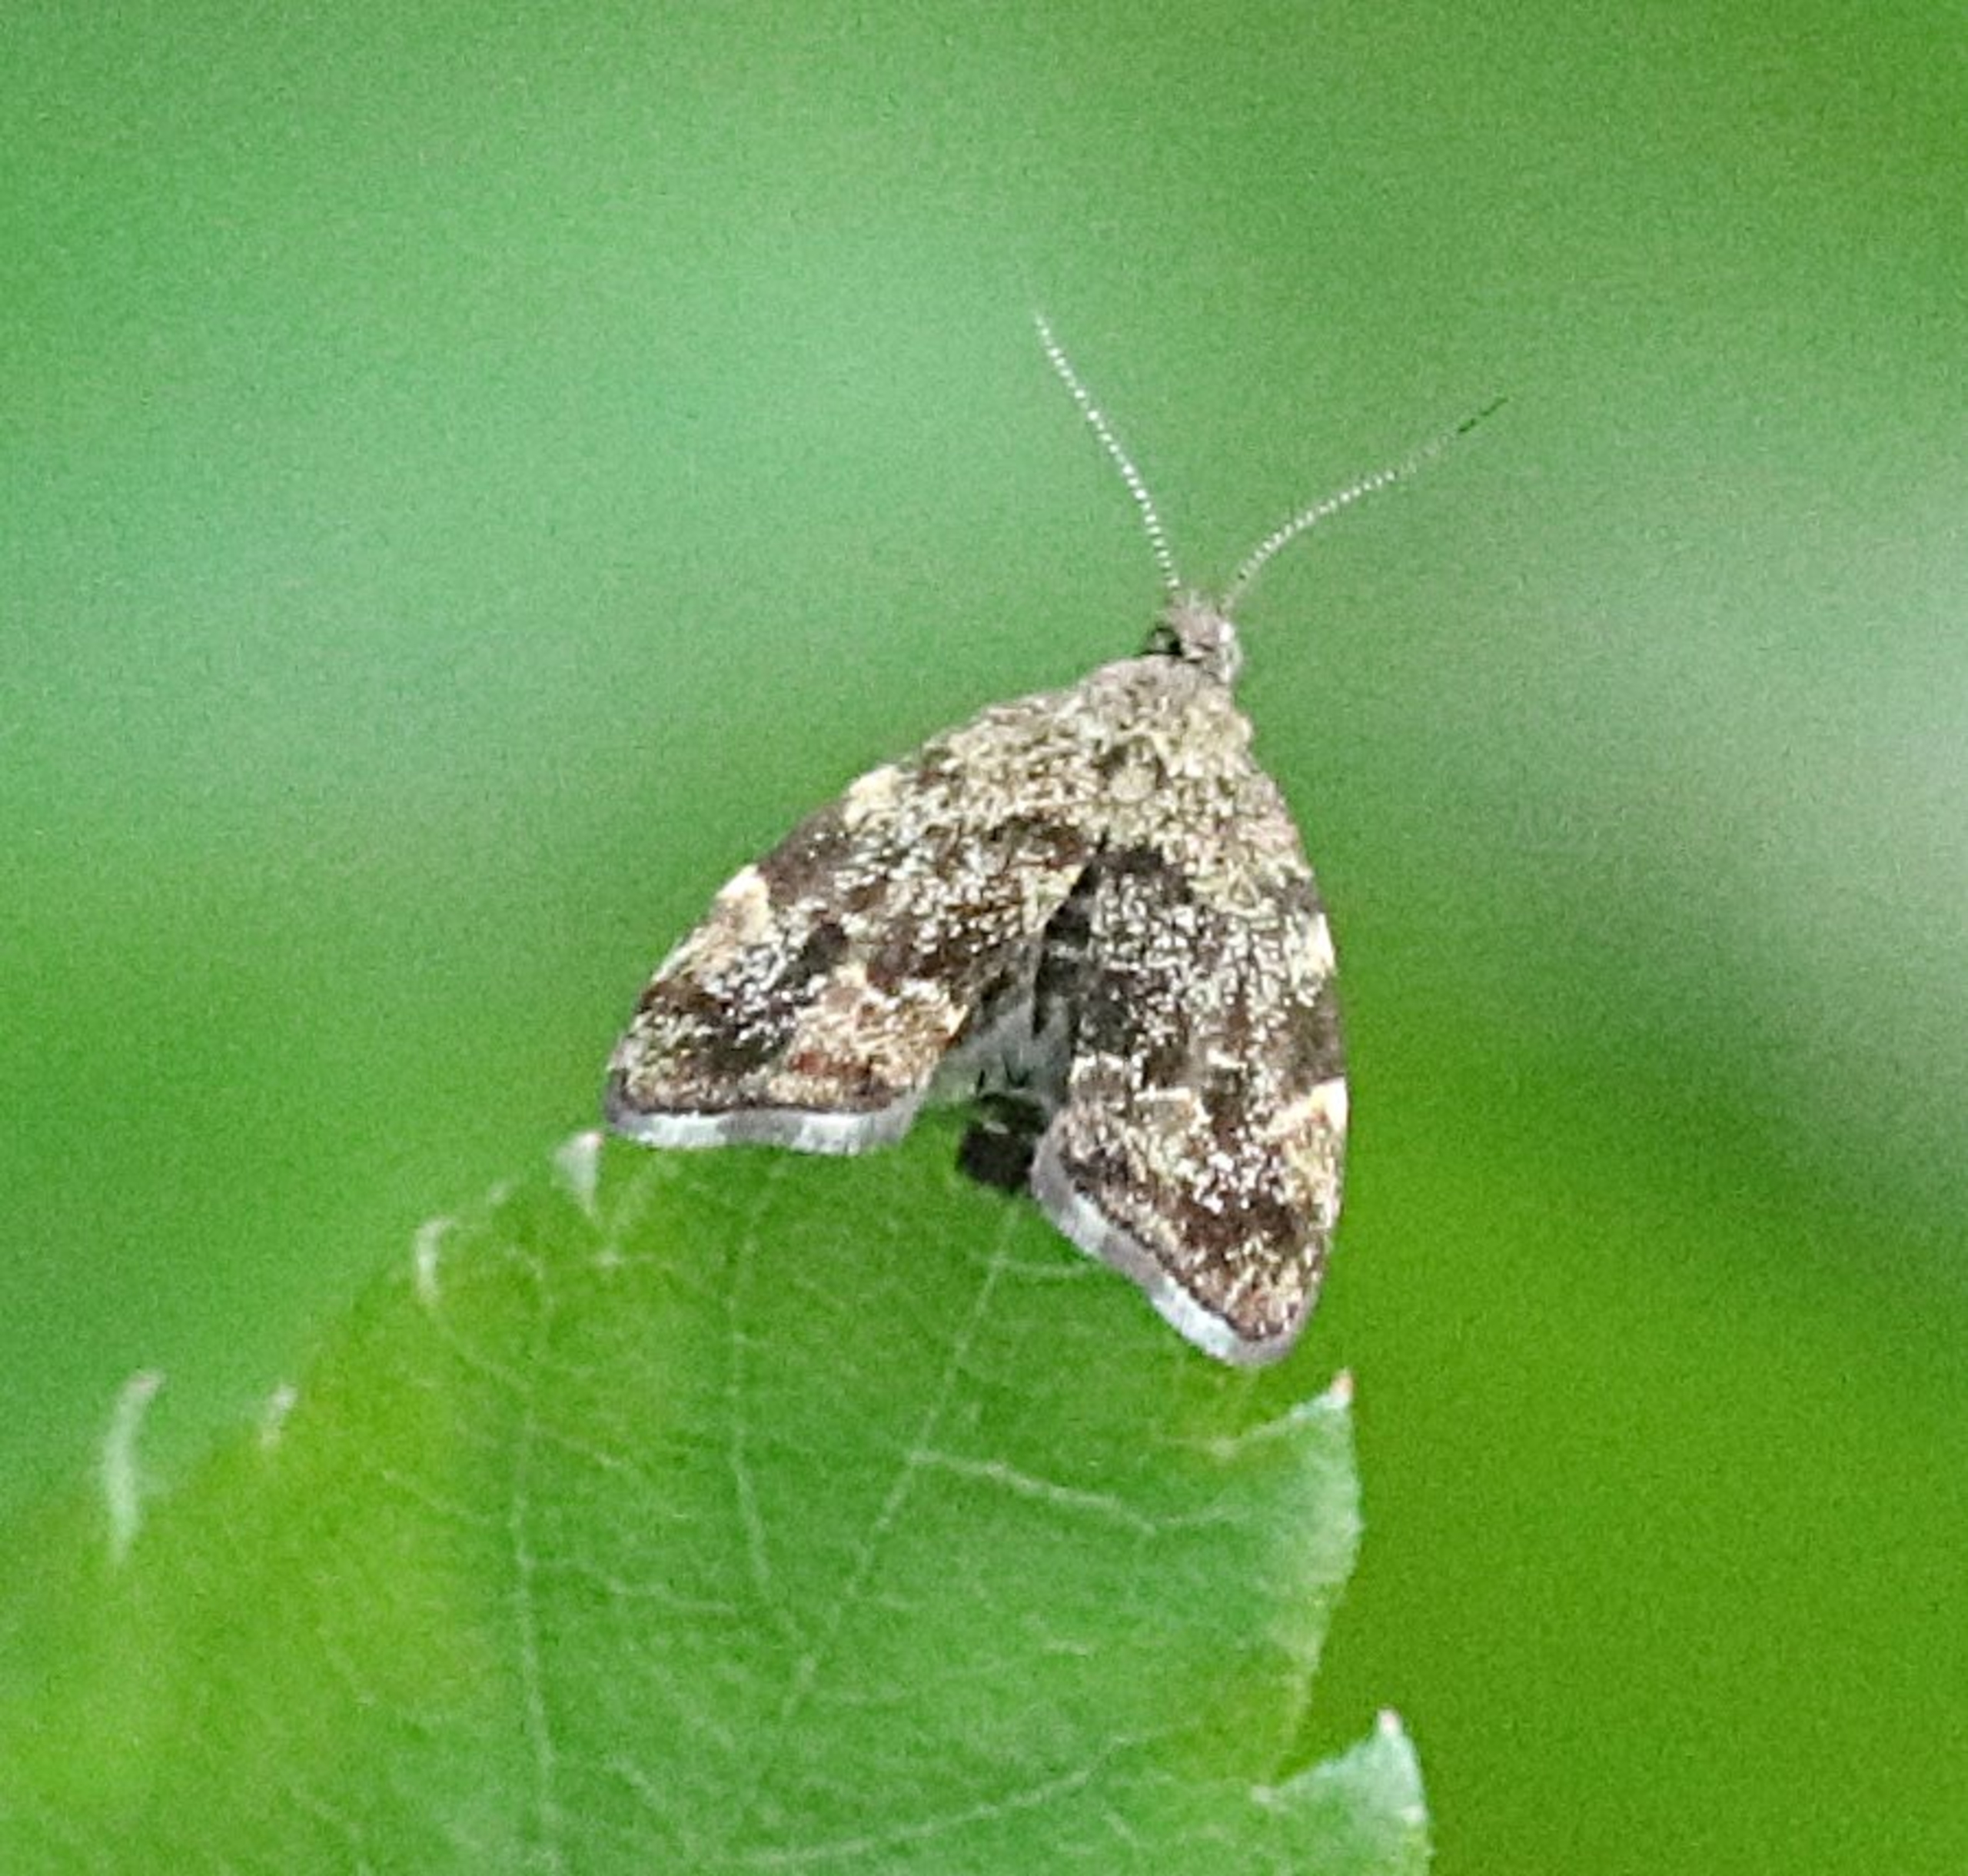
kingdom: Animalia
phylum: Arthropoda
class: Insecta
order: Lepidoptera
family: Choreutidae
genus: Anthophila
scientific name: Anthophila fabriciana
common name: Bredvinget nældevikler
